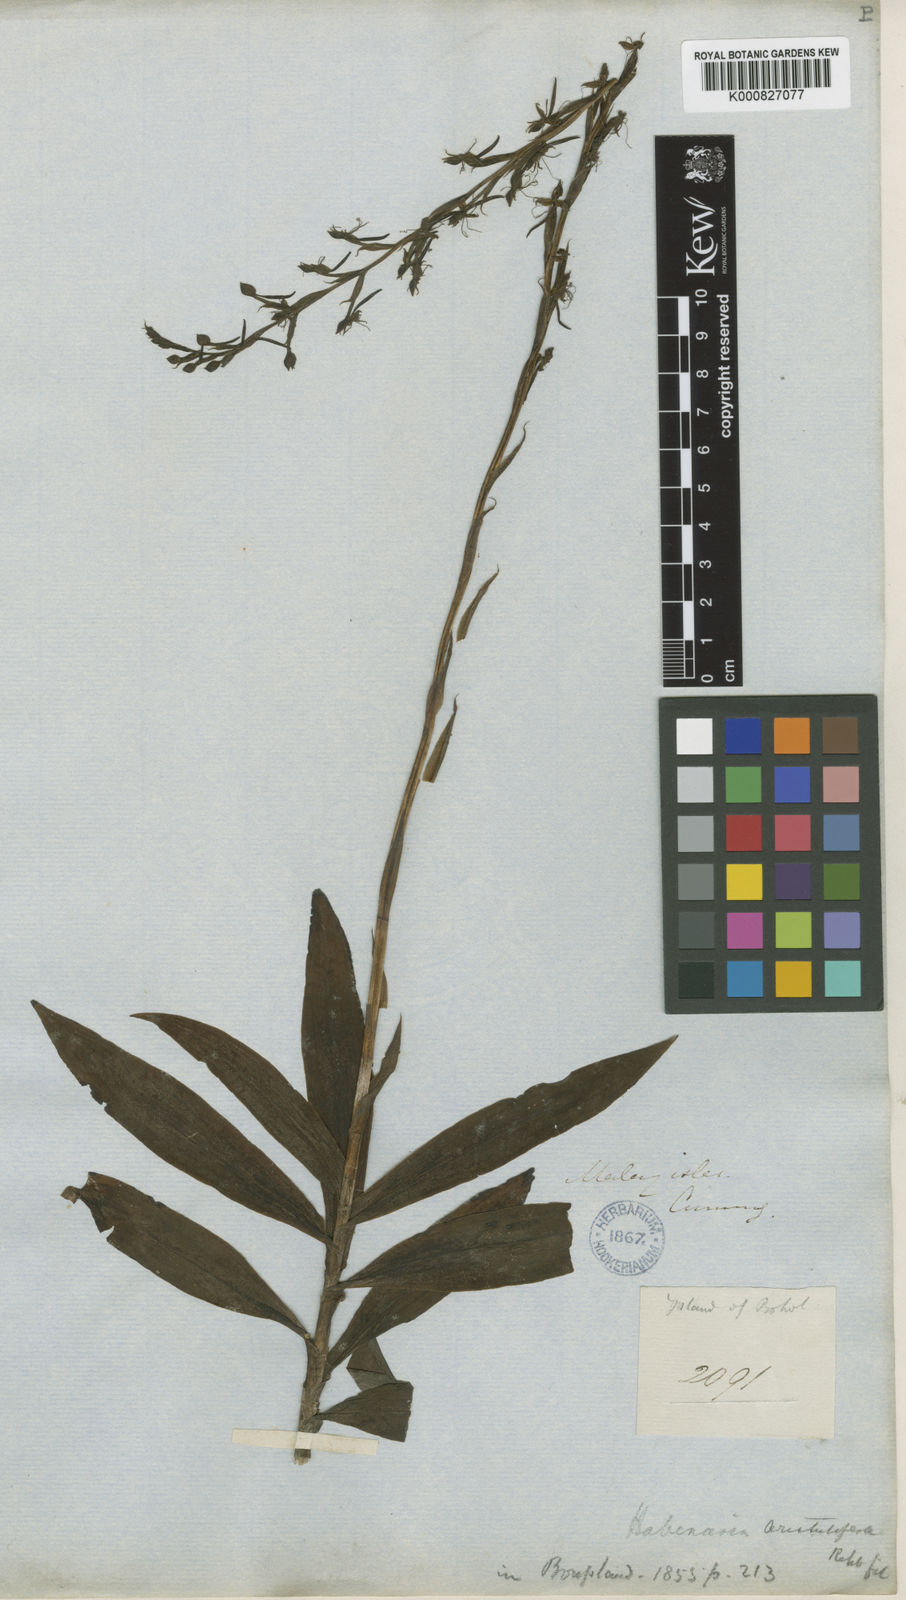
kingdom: Plantae
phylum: Tracheophyta
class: Liliopsida
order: Asparagales
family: Orchidaceae
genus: Habenaria
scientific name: Habenaria aristulifera
